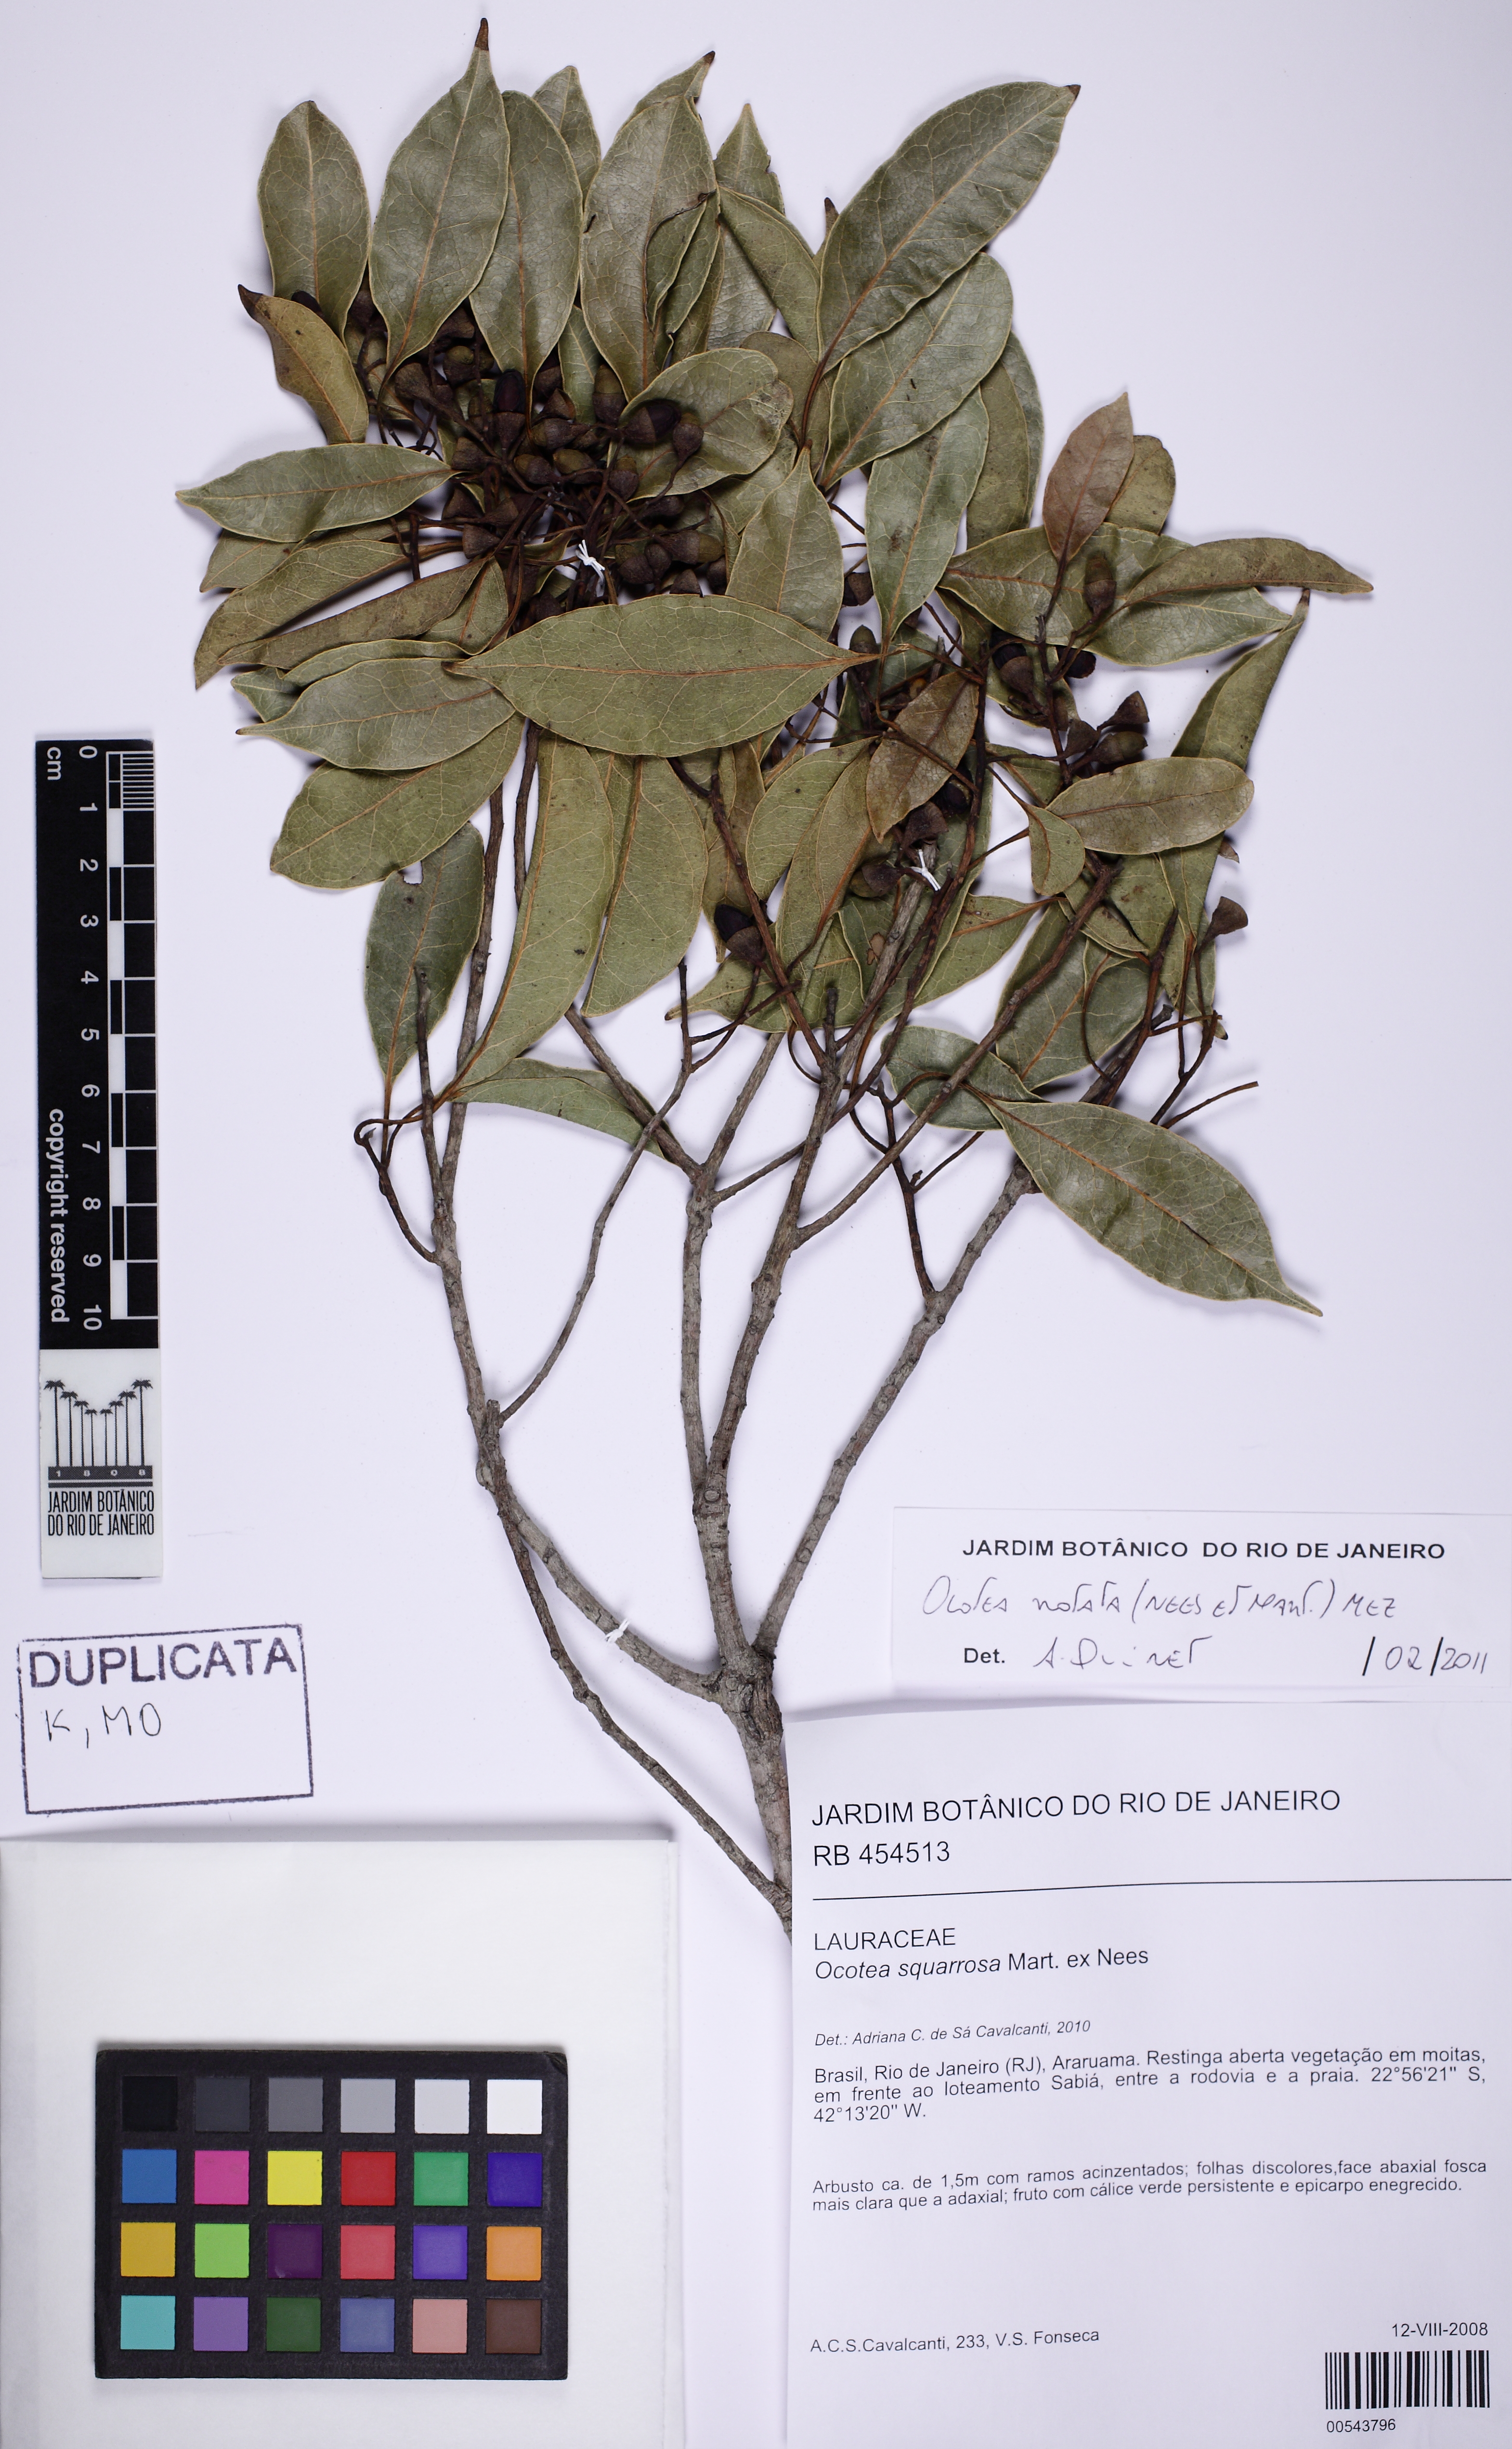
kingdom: Plantae
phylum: Tracheophyta
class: Magnoliopsida
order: Laurales
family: Lauraceae
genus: Mespilodaphne
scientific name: Mespilodaphne notata
